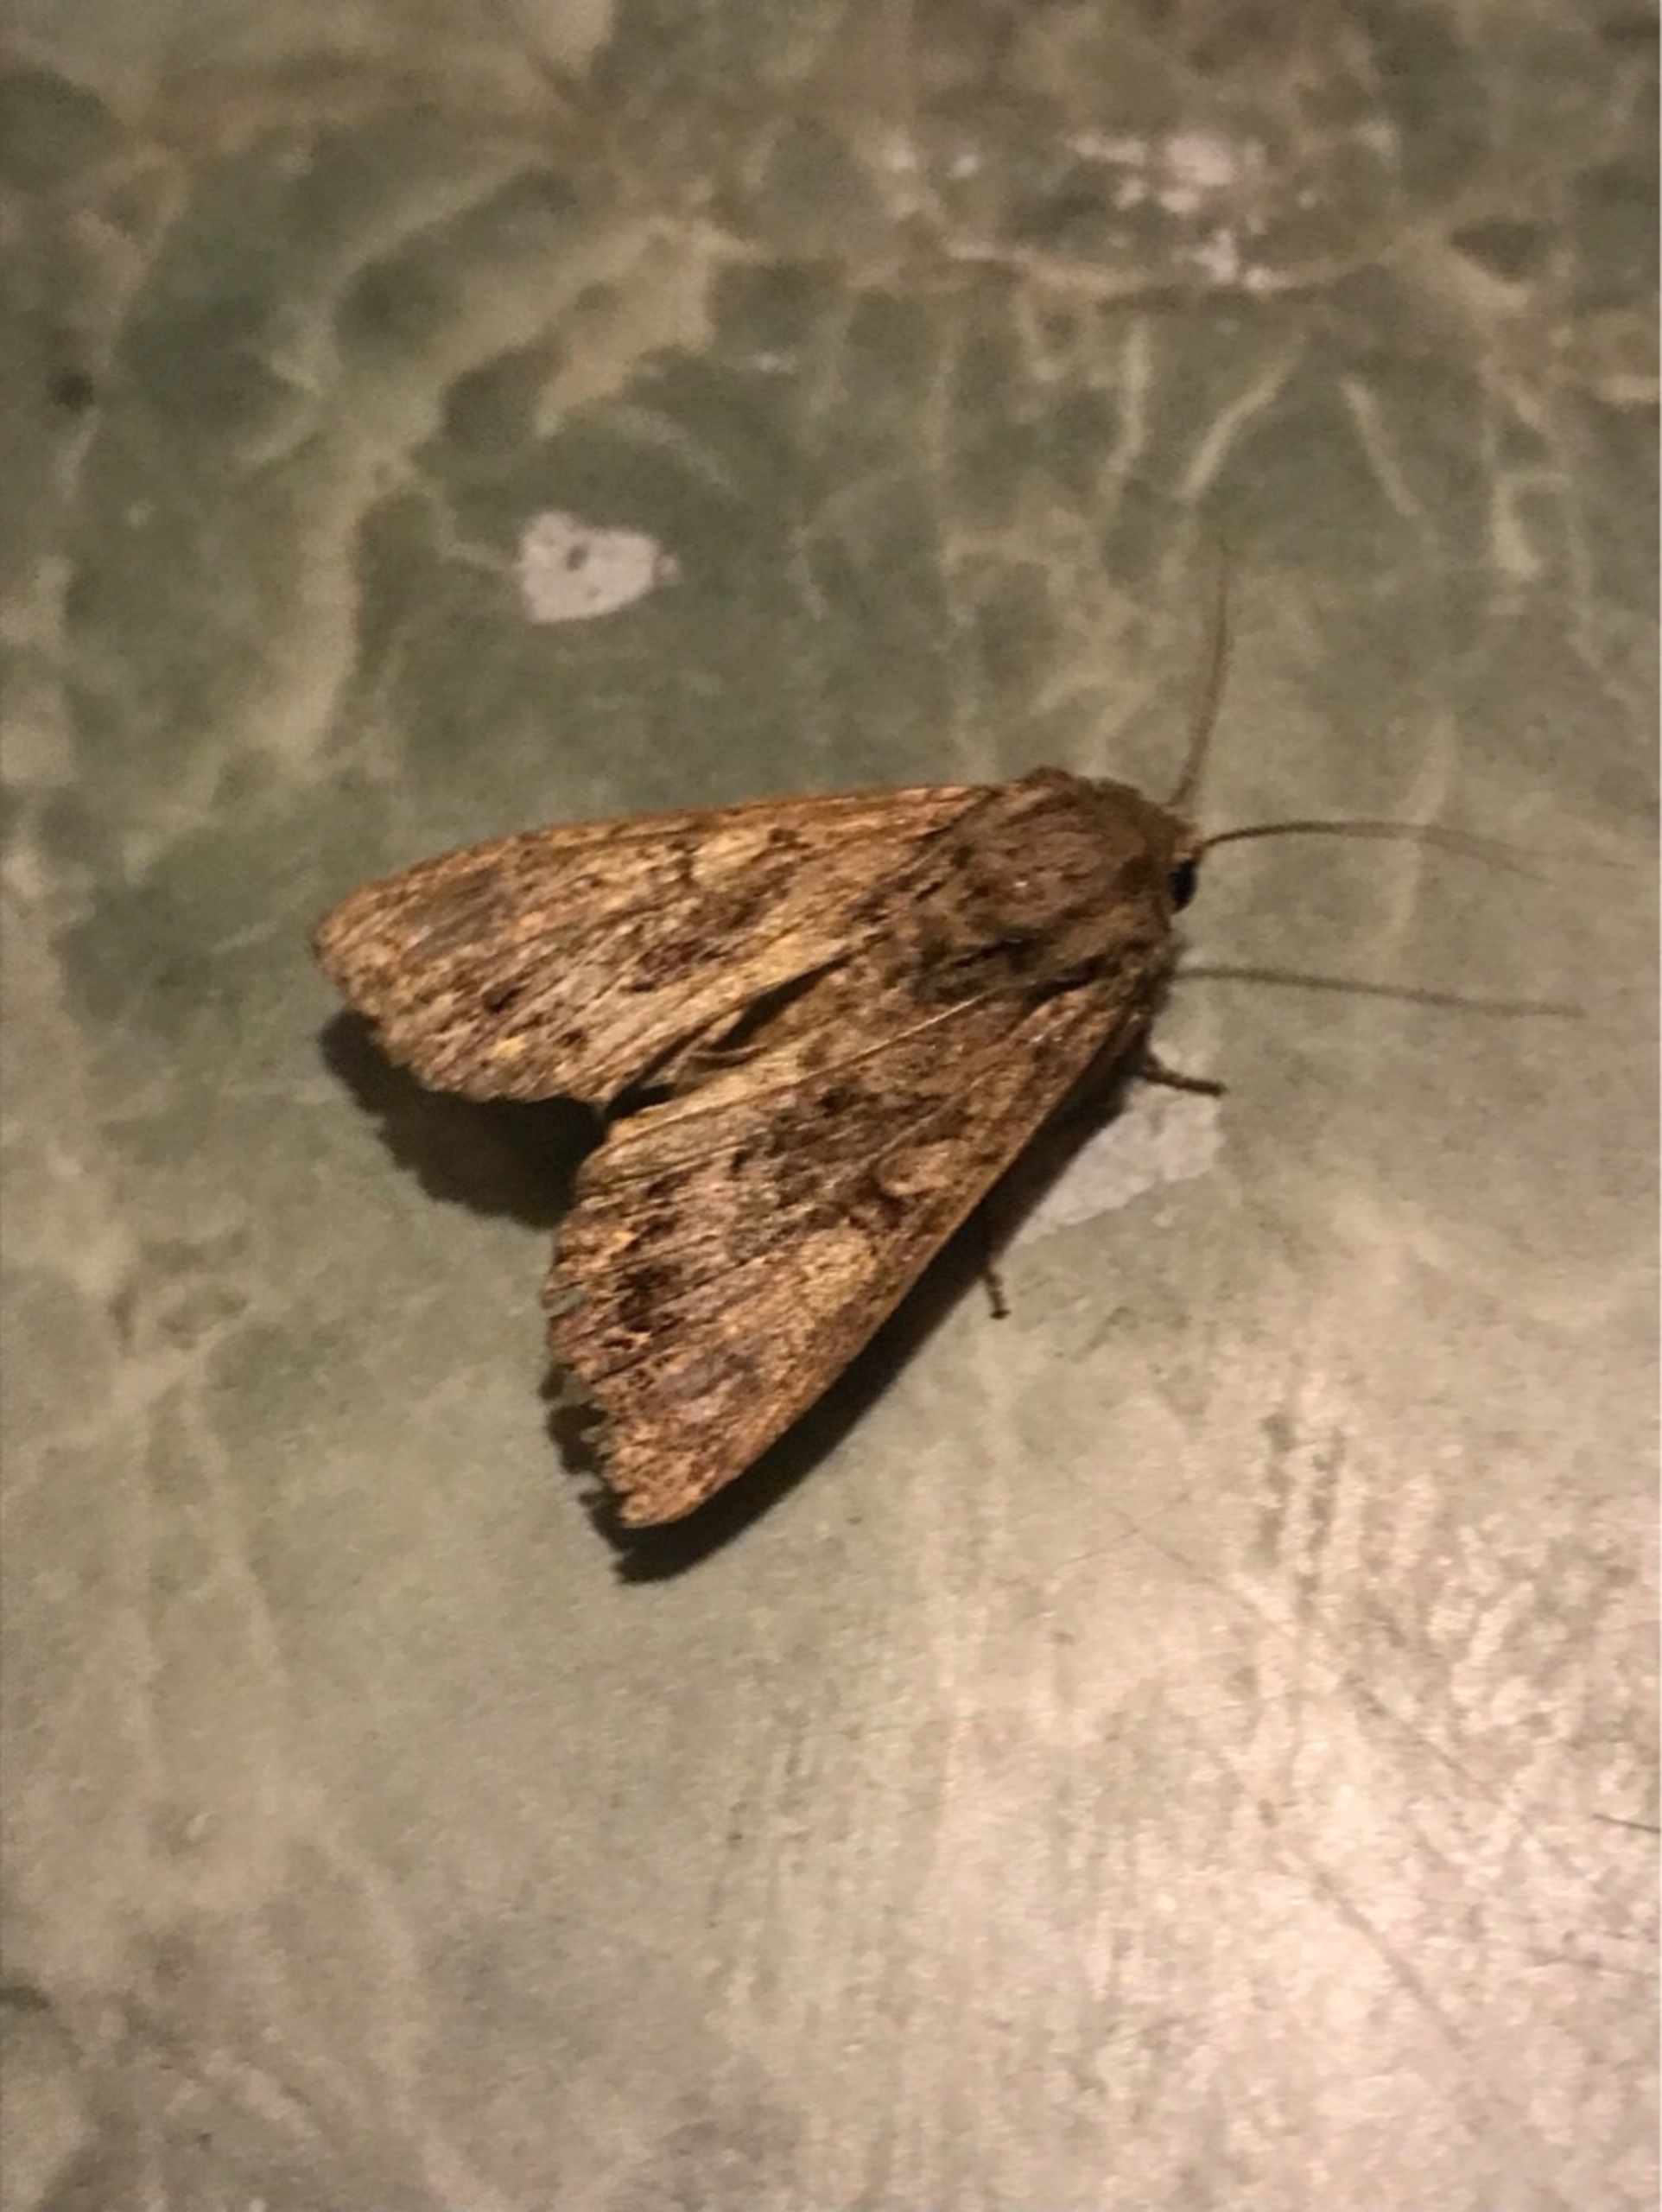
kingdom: Animalia
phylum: Arthropoda
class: Insecta
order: Lepidoptera
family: Noctuidae
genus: Apamea
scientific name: Apamea monoglypha
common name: Jordugle
